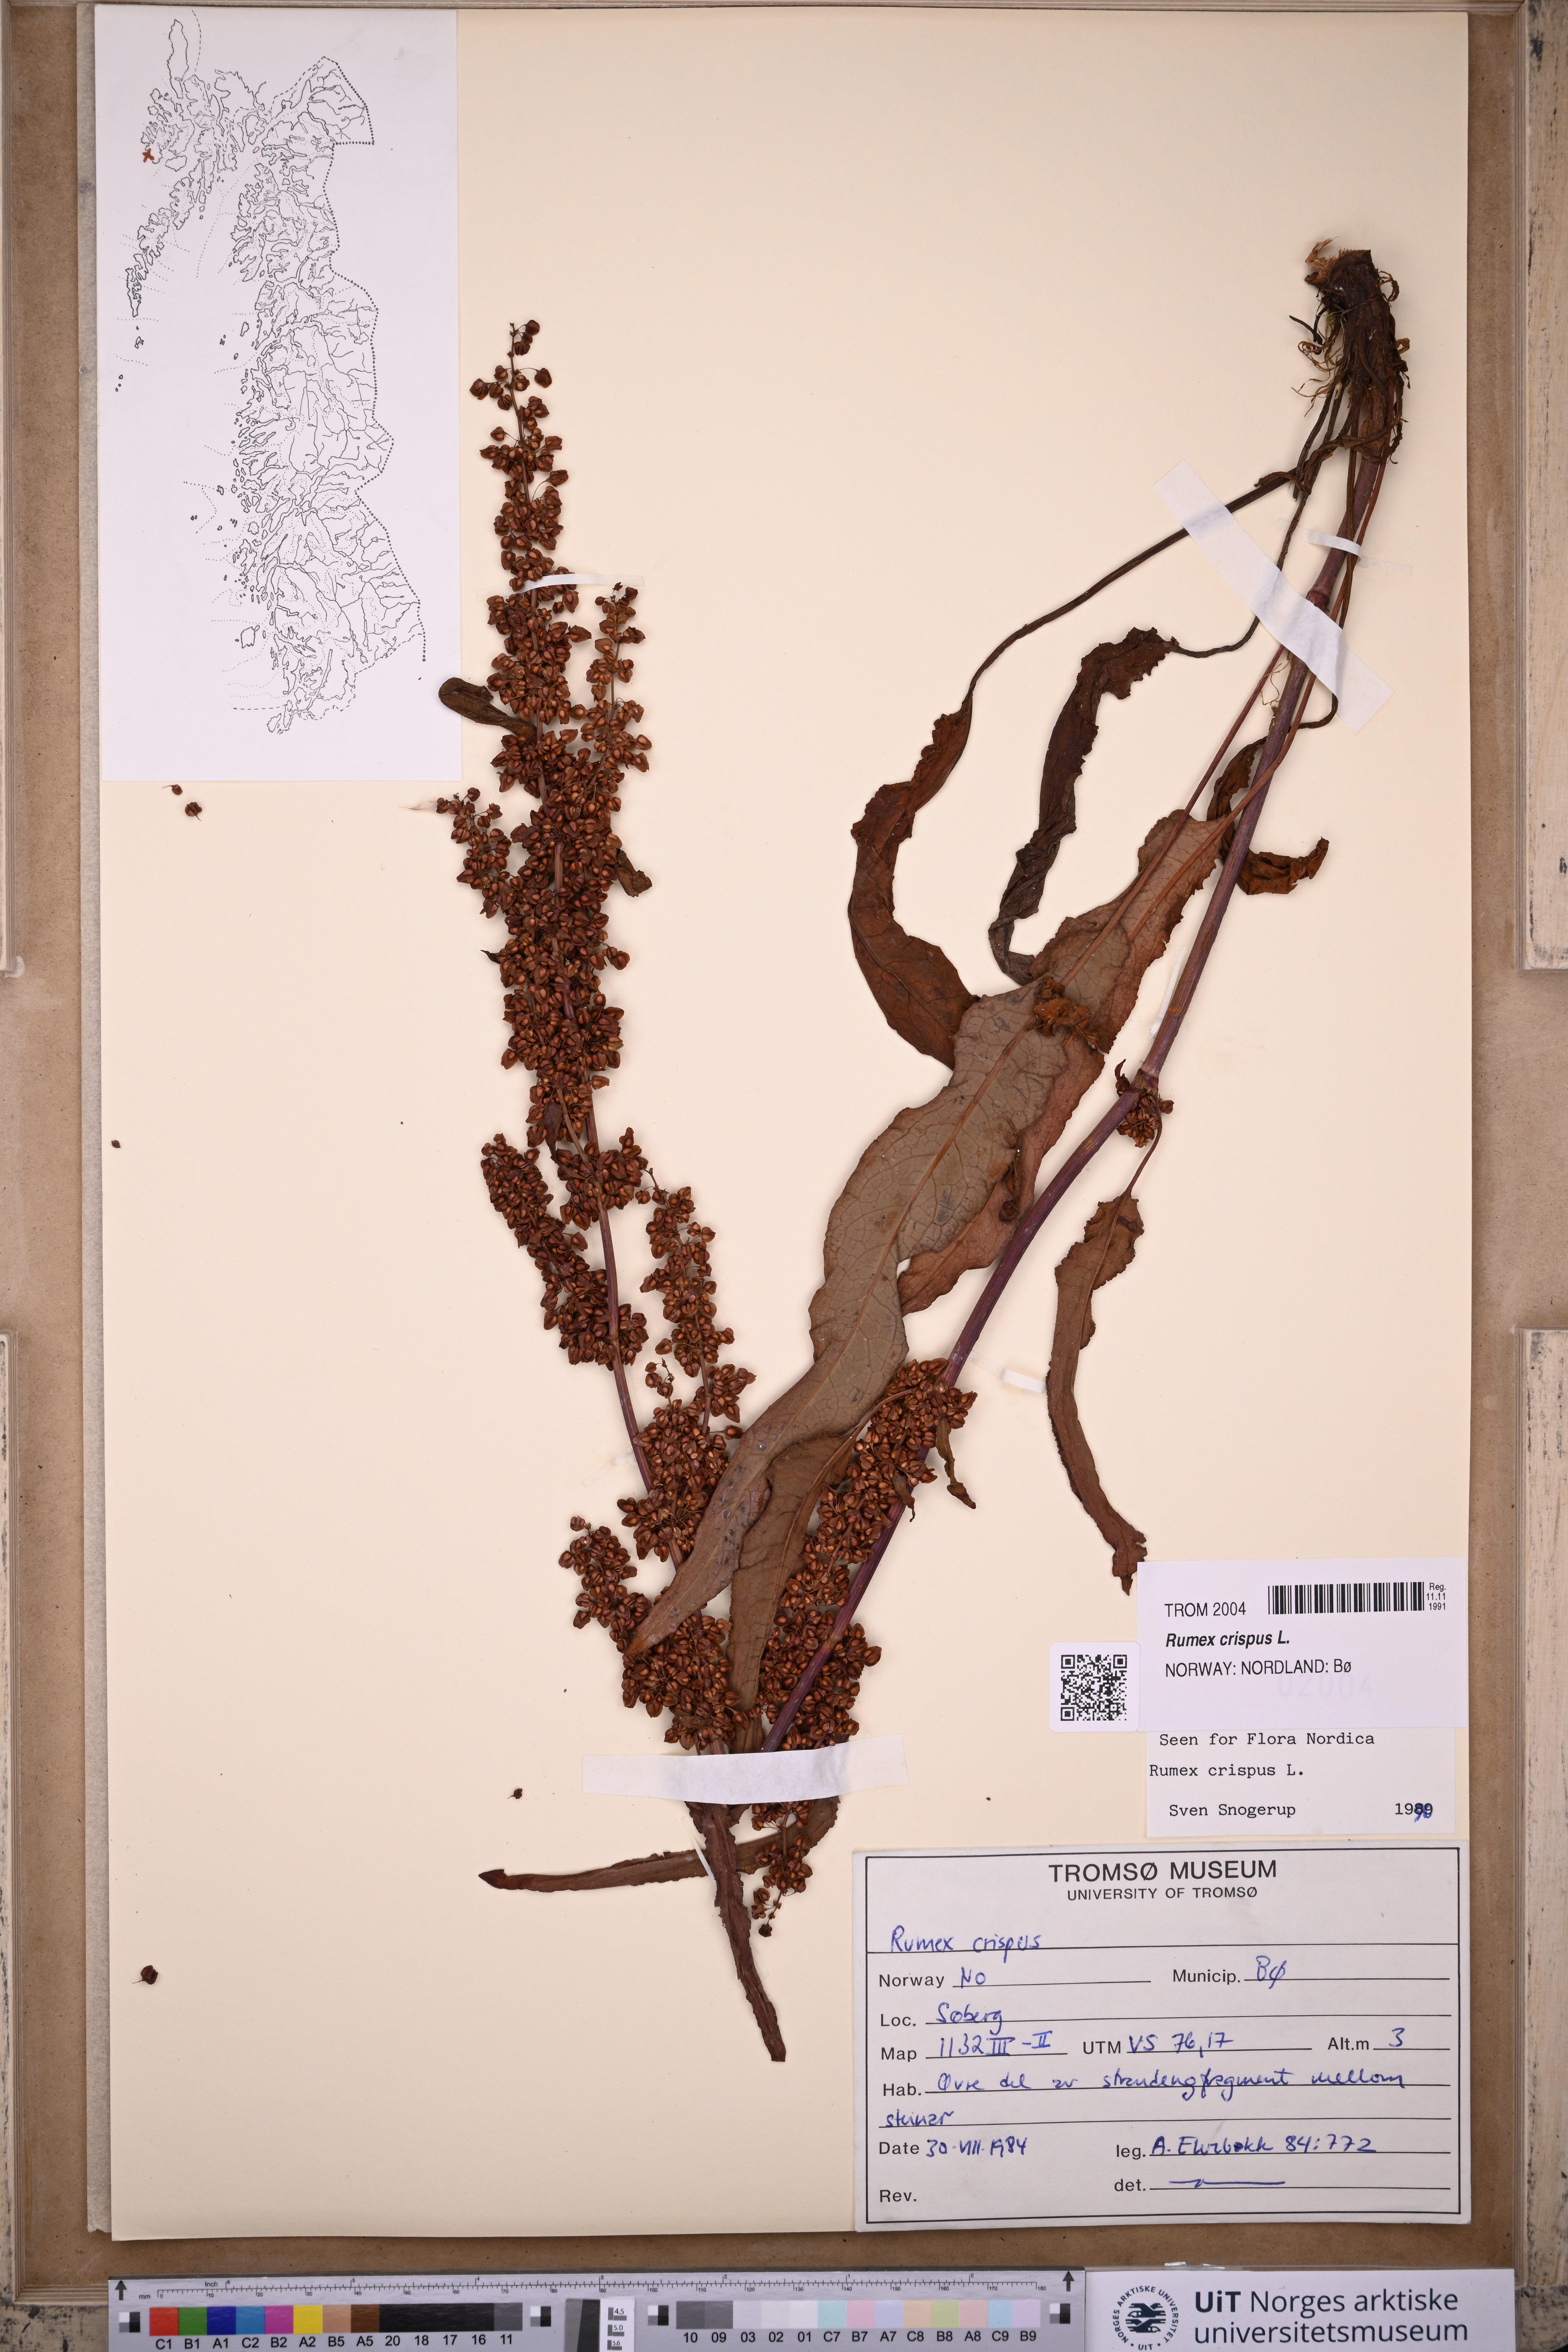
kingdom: Plantae
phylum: Tracheophyta
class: Magnoliopsida
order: Caryophyllales
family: Polygonaceae
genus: Rumex
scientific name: Rumex crispus
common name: Curled dock
